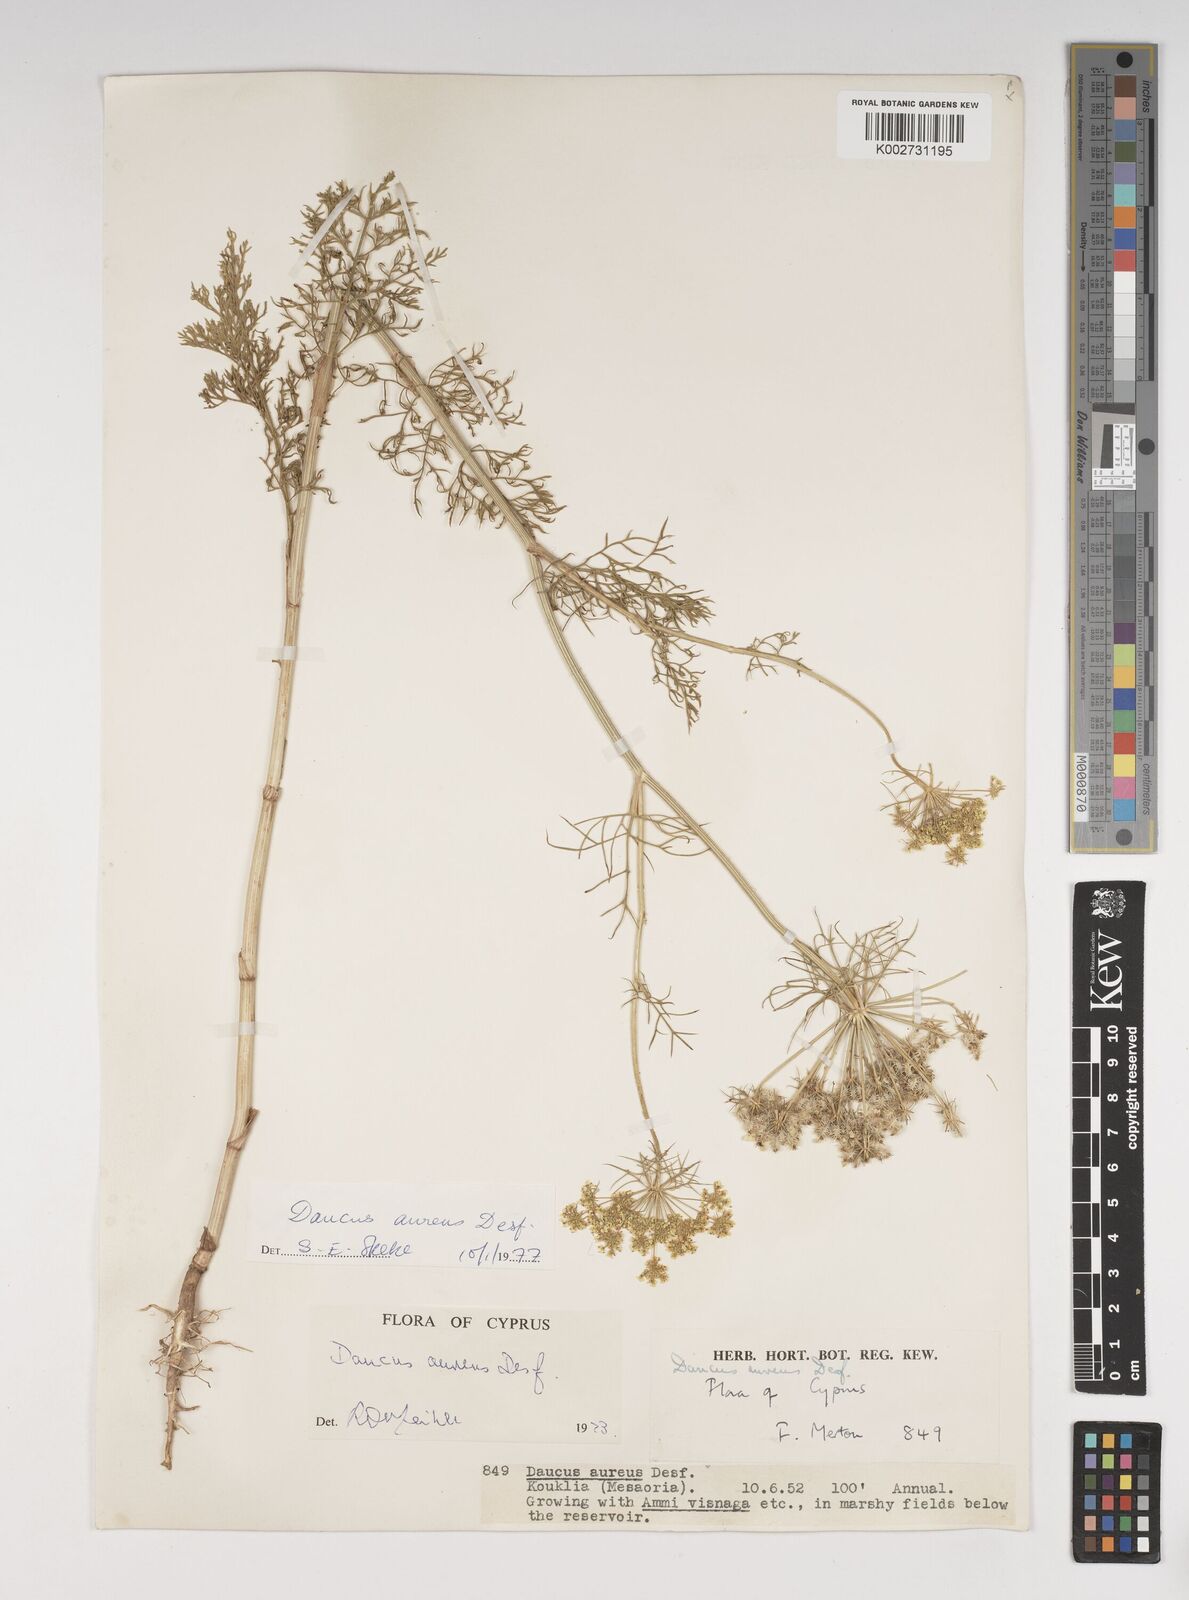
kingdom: Plantae
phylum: Tracheophyta
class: Magnoliopsida
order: Apiales
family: Apiaceae
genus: Daucus
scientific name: Daucus aureus
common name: Golden carrot
